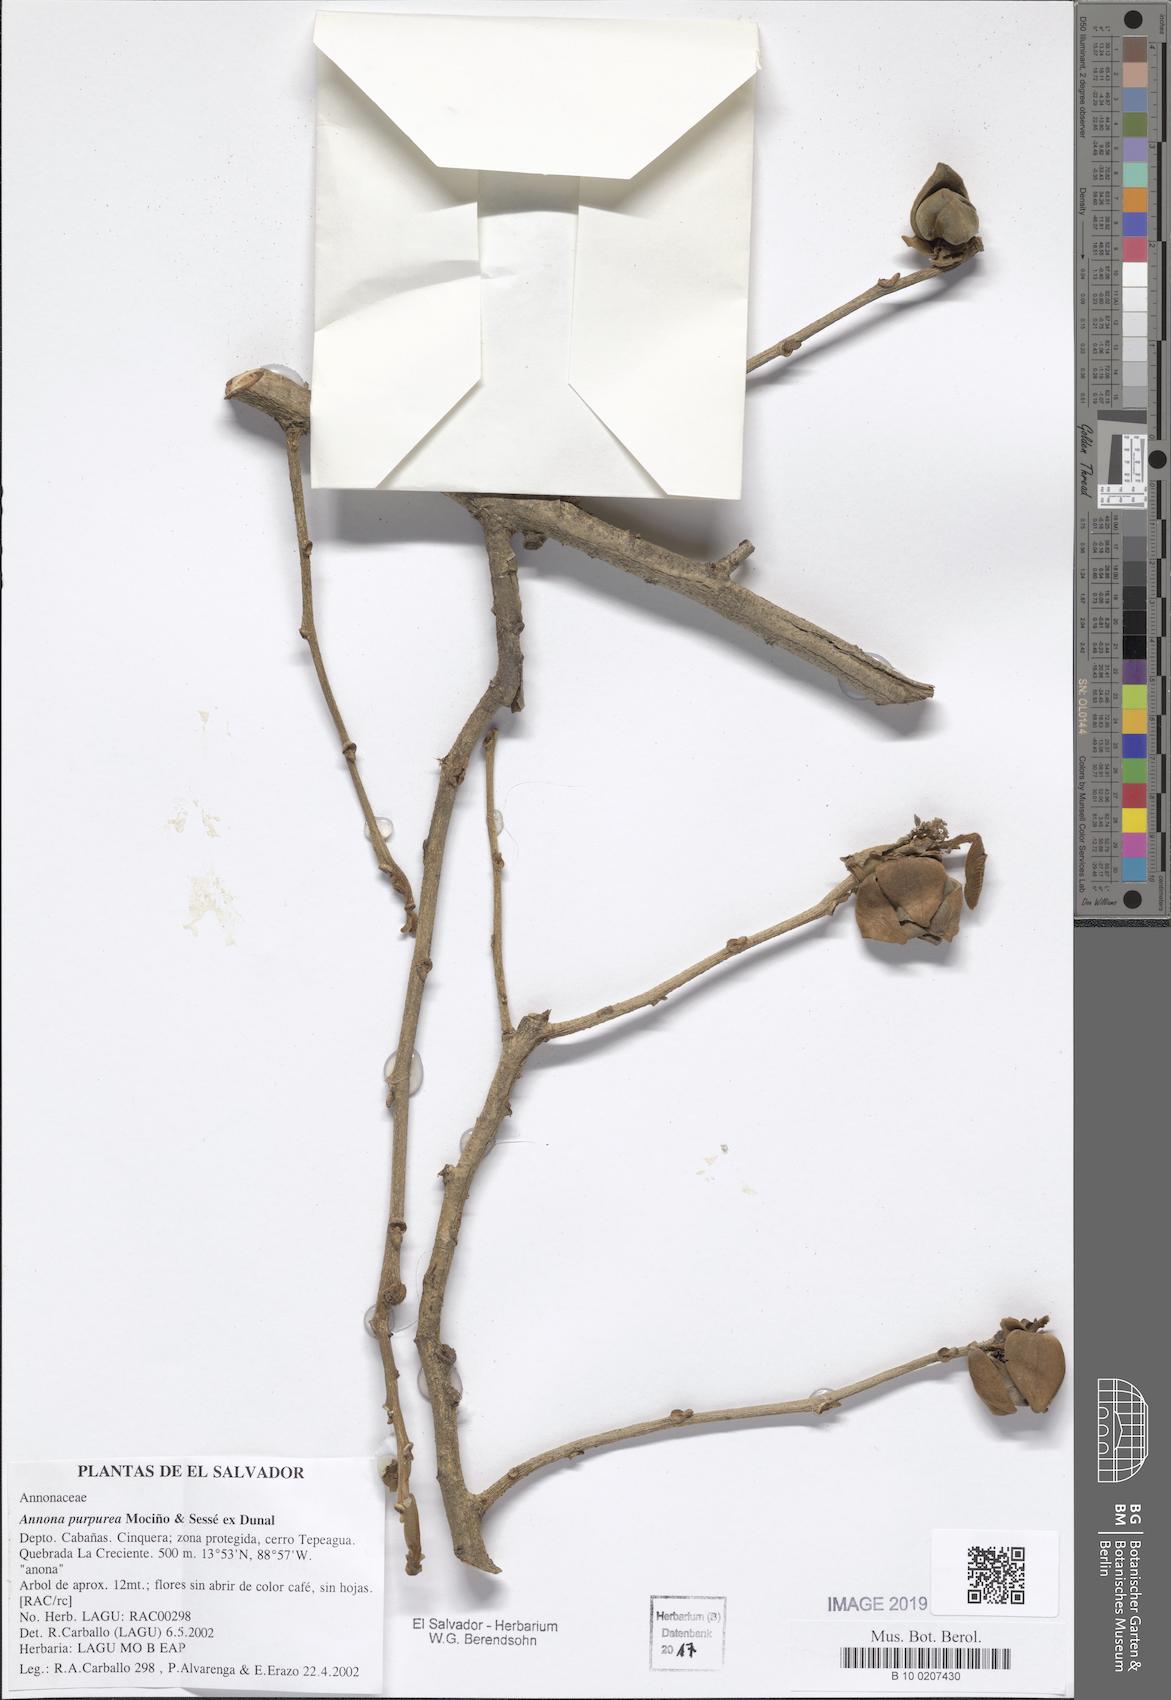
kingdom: Plantae
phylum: Tracheophyta
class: Magnoliopsida
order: Magnoliales
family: Annonaceae
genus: Annona
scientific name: Annona purpurea
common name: Negrohead
